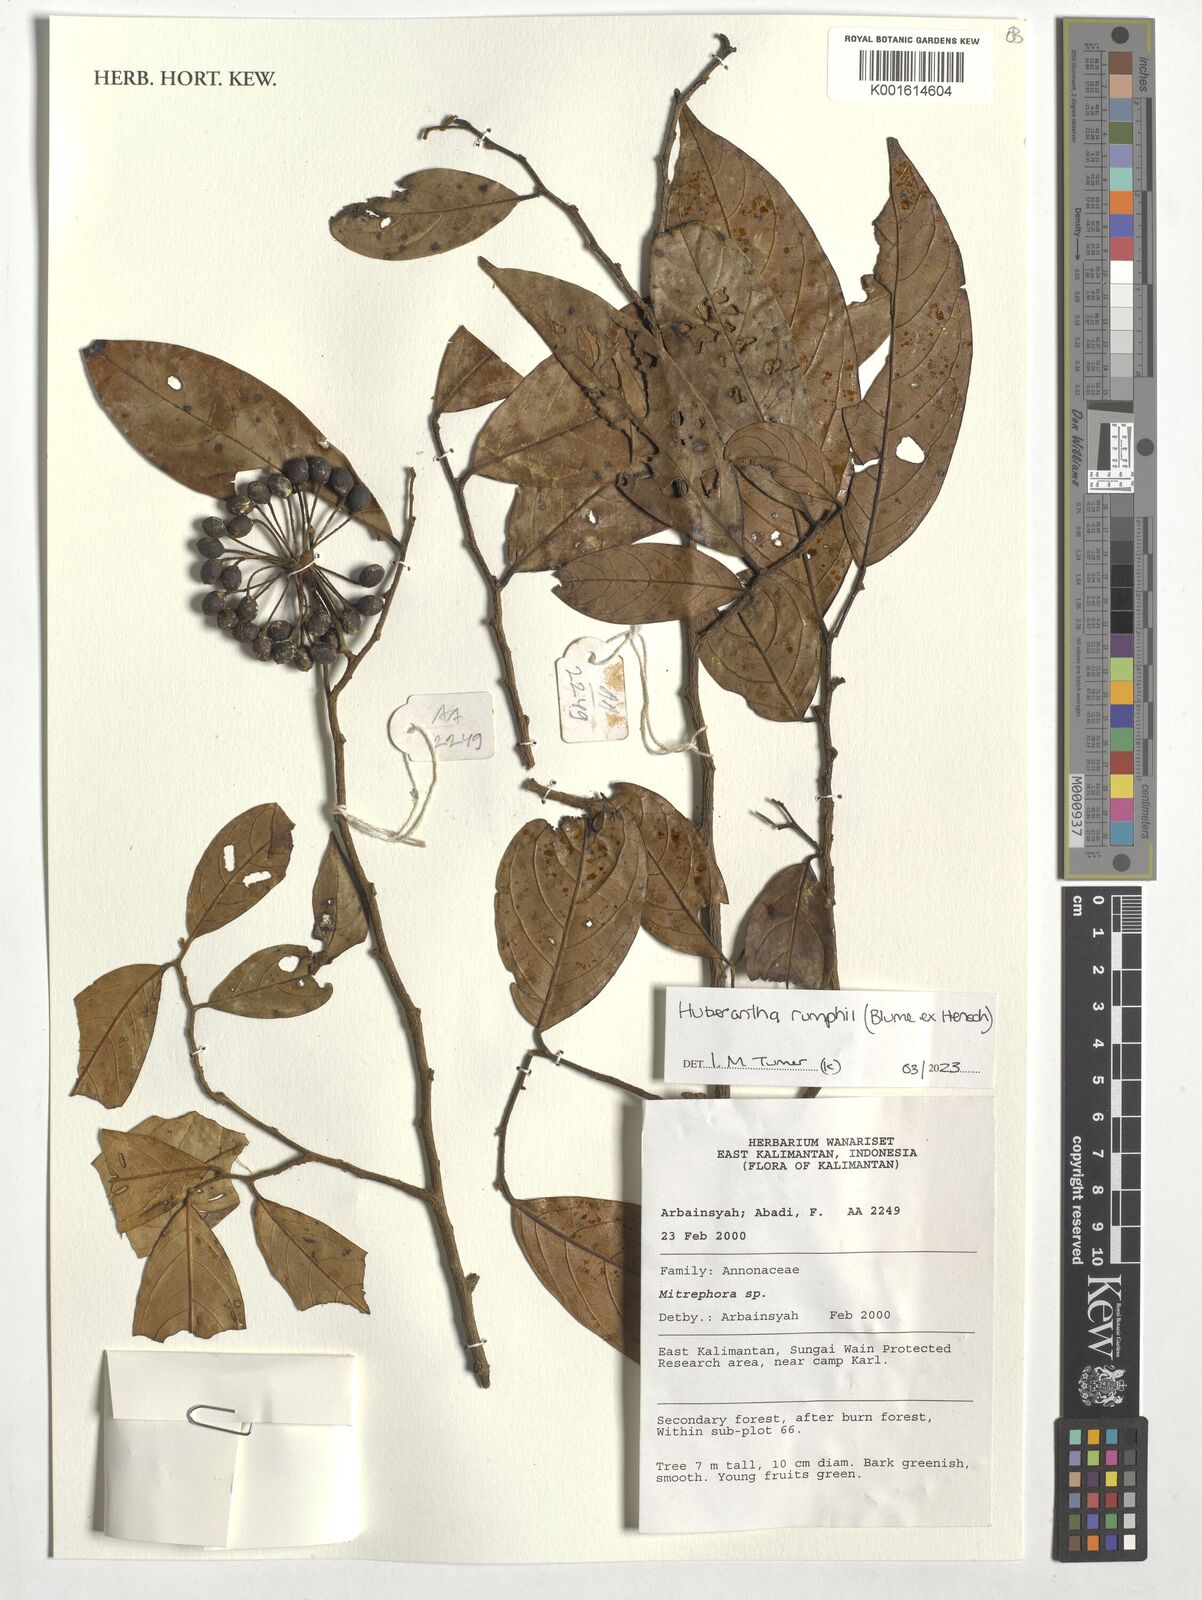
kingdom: Plantae
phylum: Tracheophyta
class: Magnoliopsida
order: Magnoliales
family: Annonaceae
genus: Hubera
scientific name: Hubera rumphii
